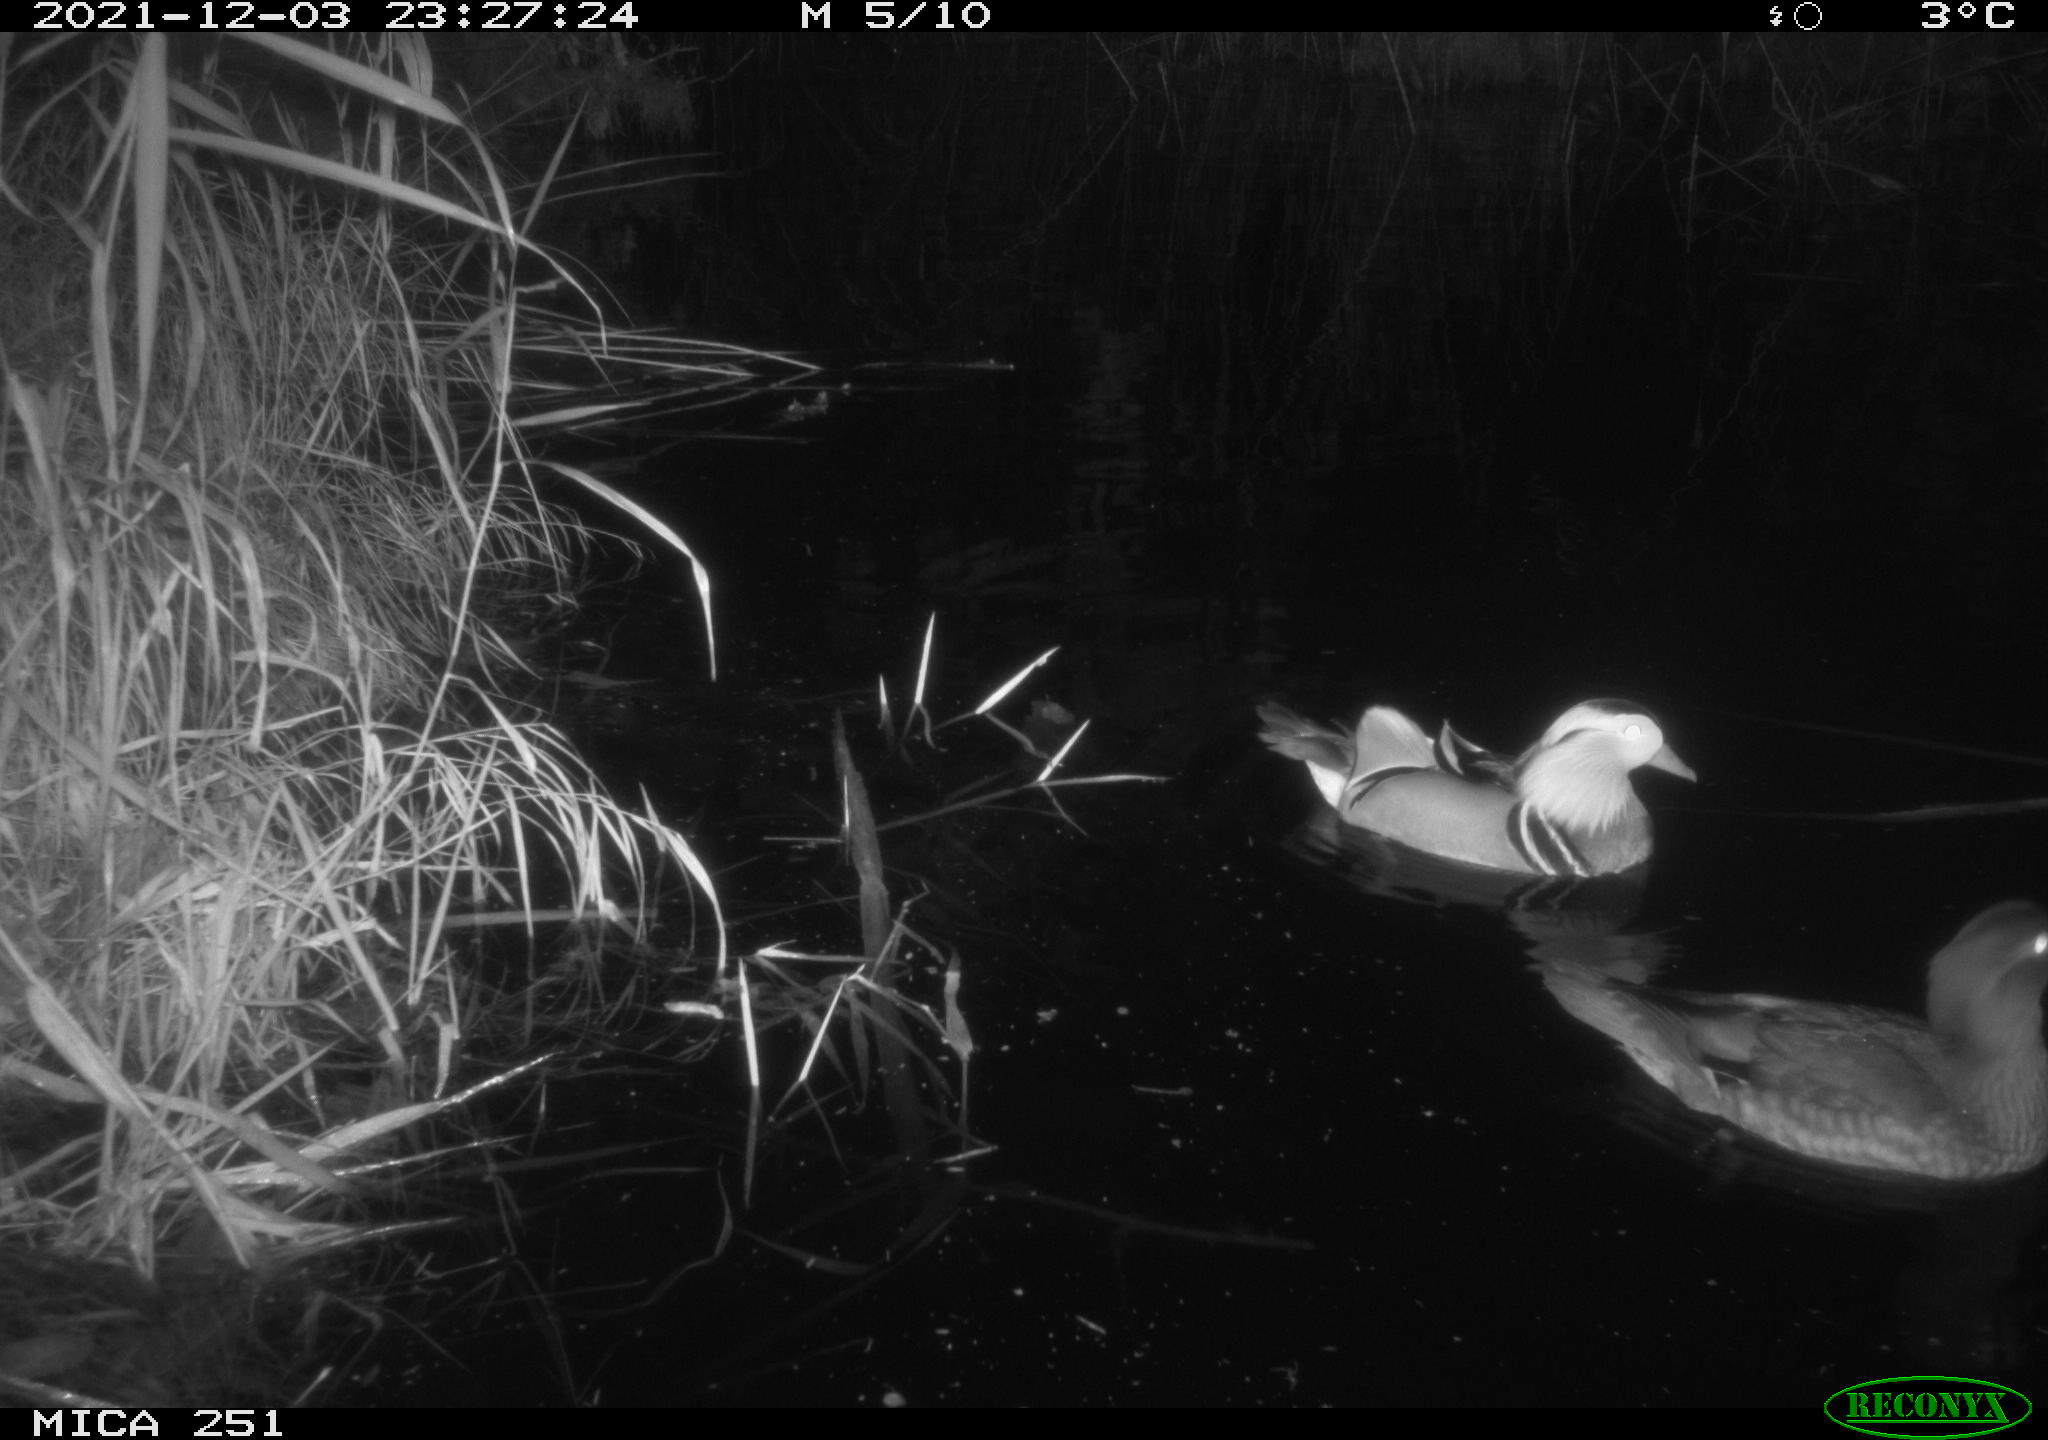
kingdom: Animalia
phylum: Chordata
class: Aves
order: Anseriformes
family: Anatidae
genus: Mareca
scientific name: Mareca strepera
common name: Gadwall
